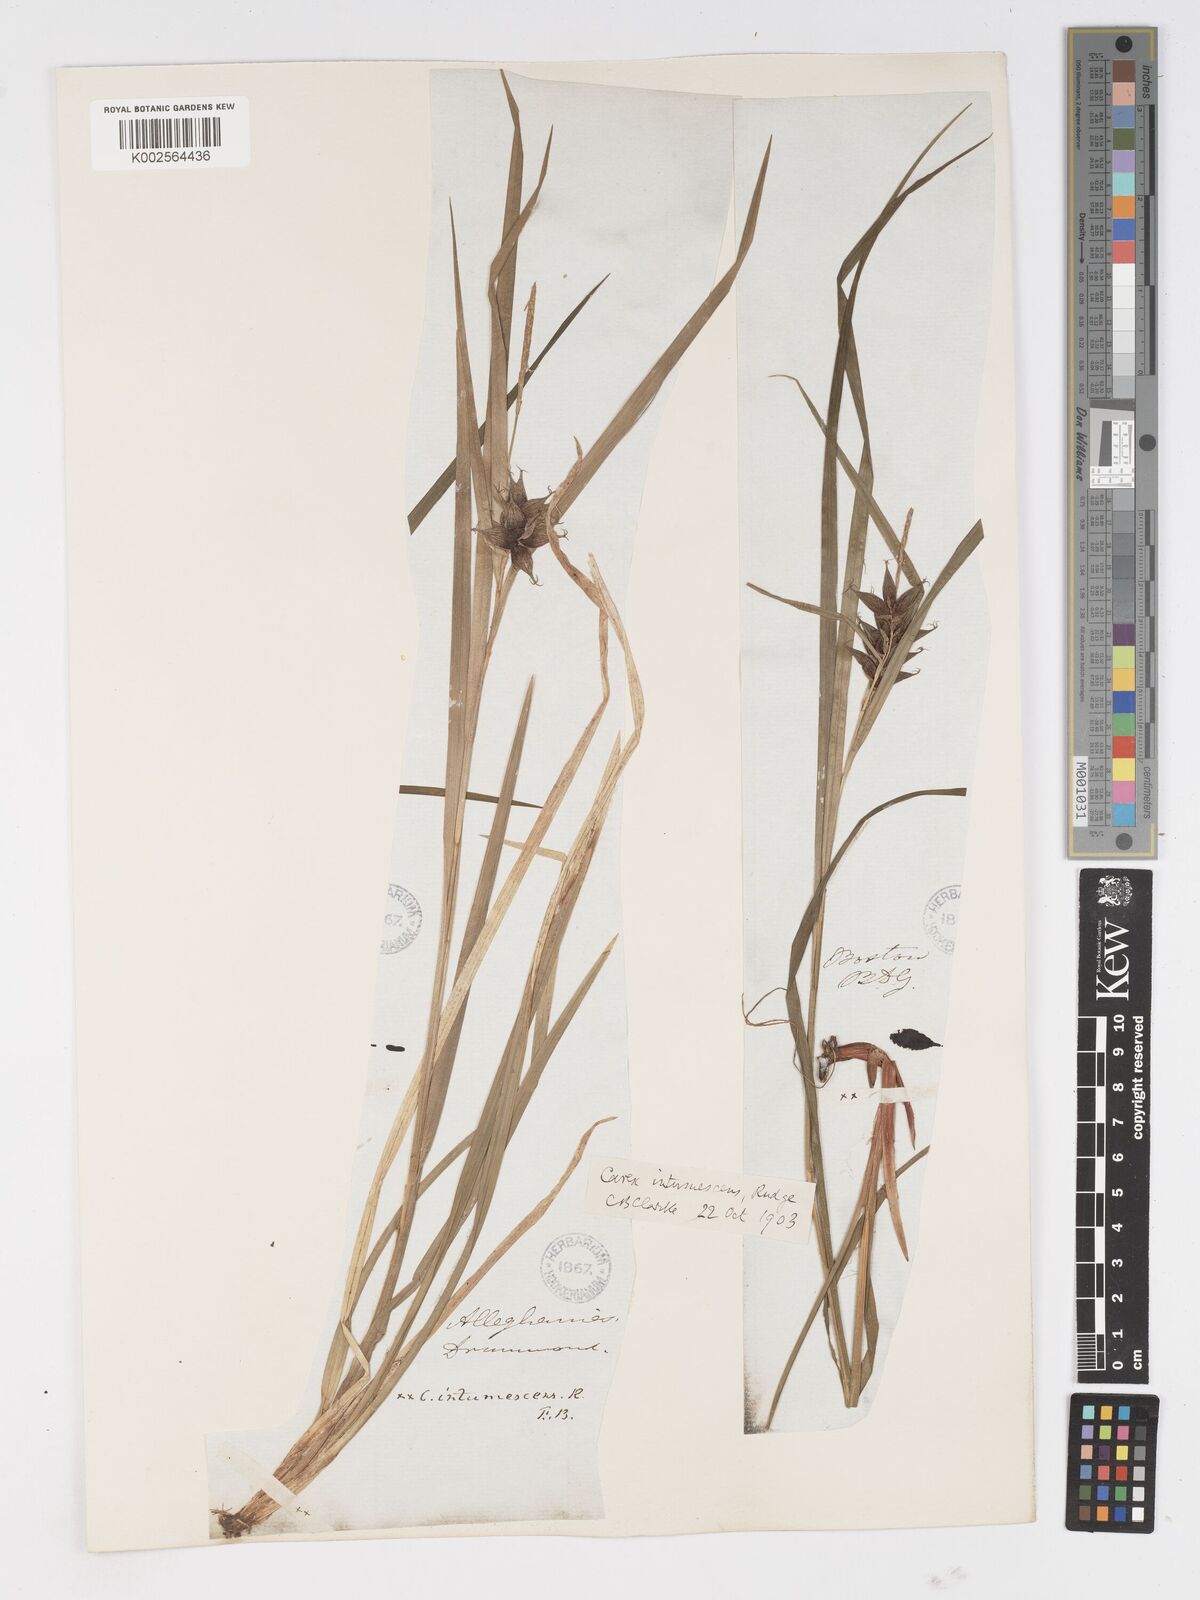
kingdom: Plantae
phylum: Tracheophyta
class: Liliopsida
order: Poales
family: Cyperaceae
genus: Carex
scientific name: Carex intumescens
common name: Greater bladder sedge
